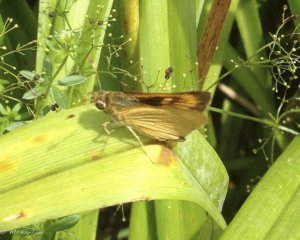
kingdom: Animalia
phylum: Arthropoda
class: Insecta
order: Lepidoptera
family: Hesperiidae
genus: Atrytone
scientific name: Atrytone delaware
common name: Delaware Skipper
